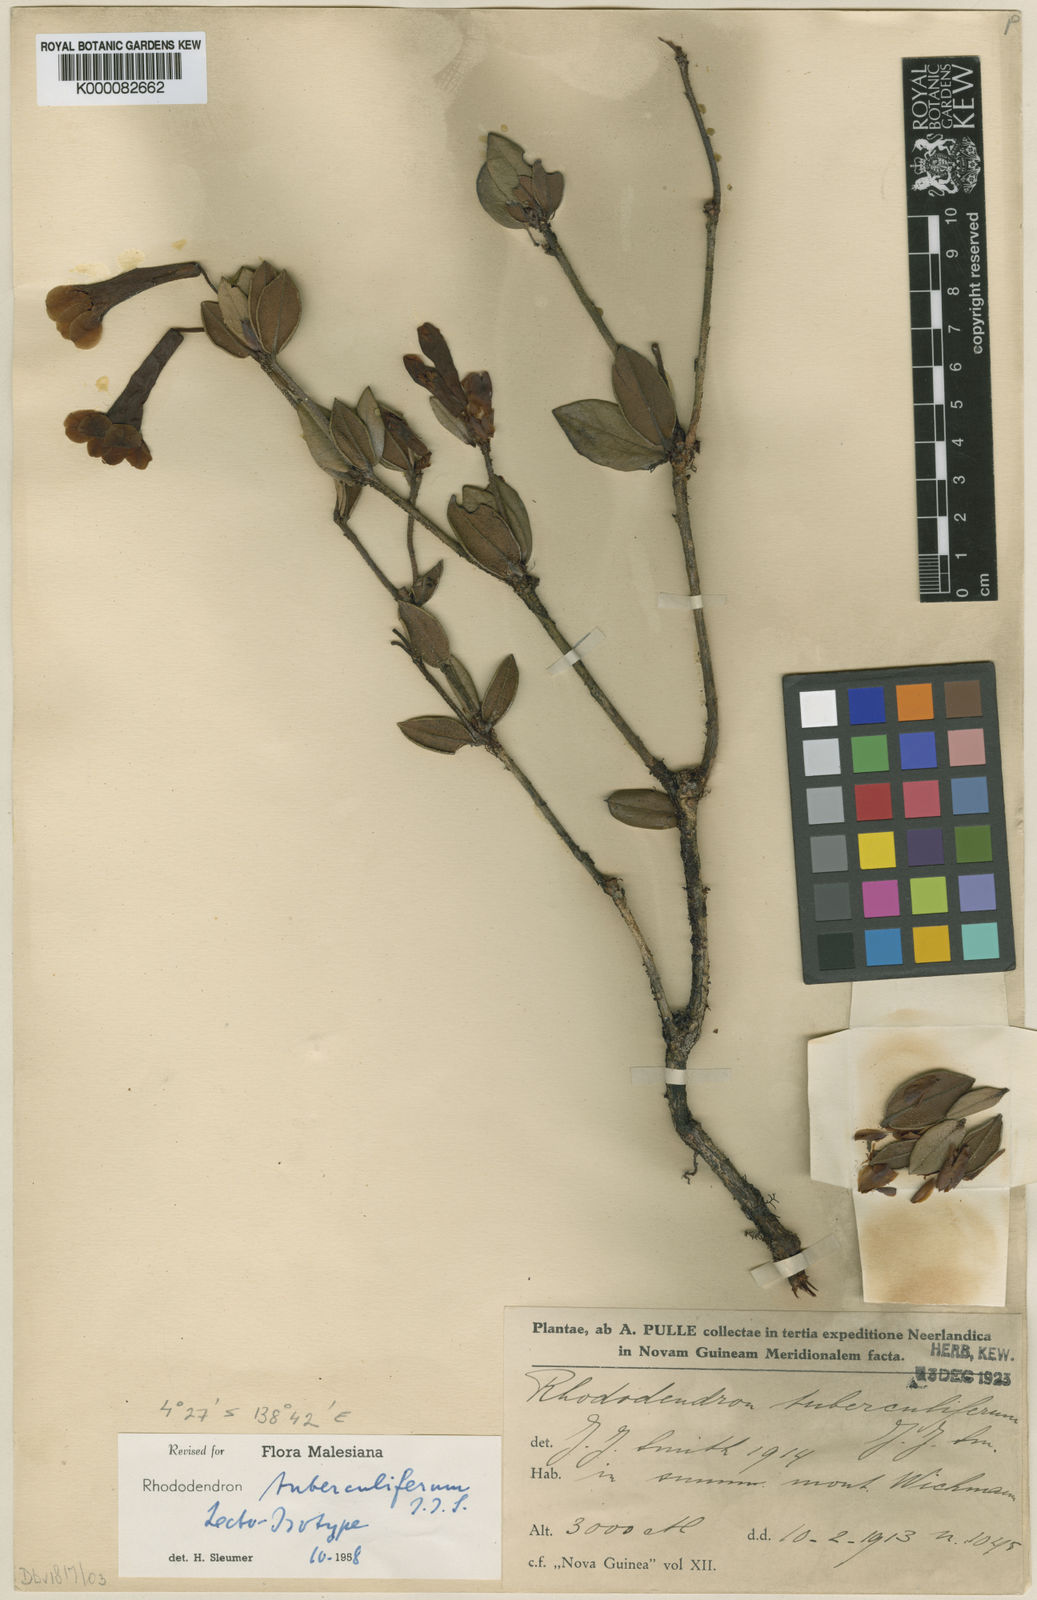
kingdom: Plantae
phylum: Tracheophyta
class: Magnoliopsida
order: Ericales
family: Ericaceae
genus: Rhododendron
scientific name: Rhododendron tuberculiferum
